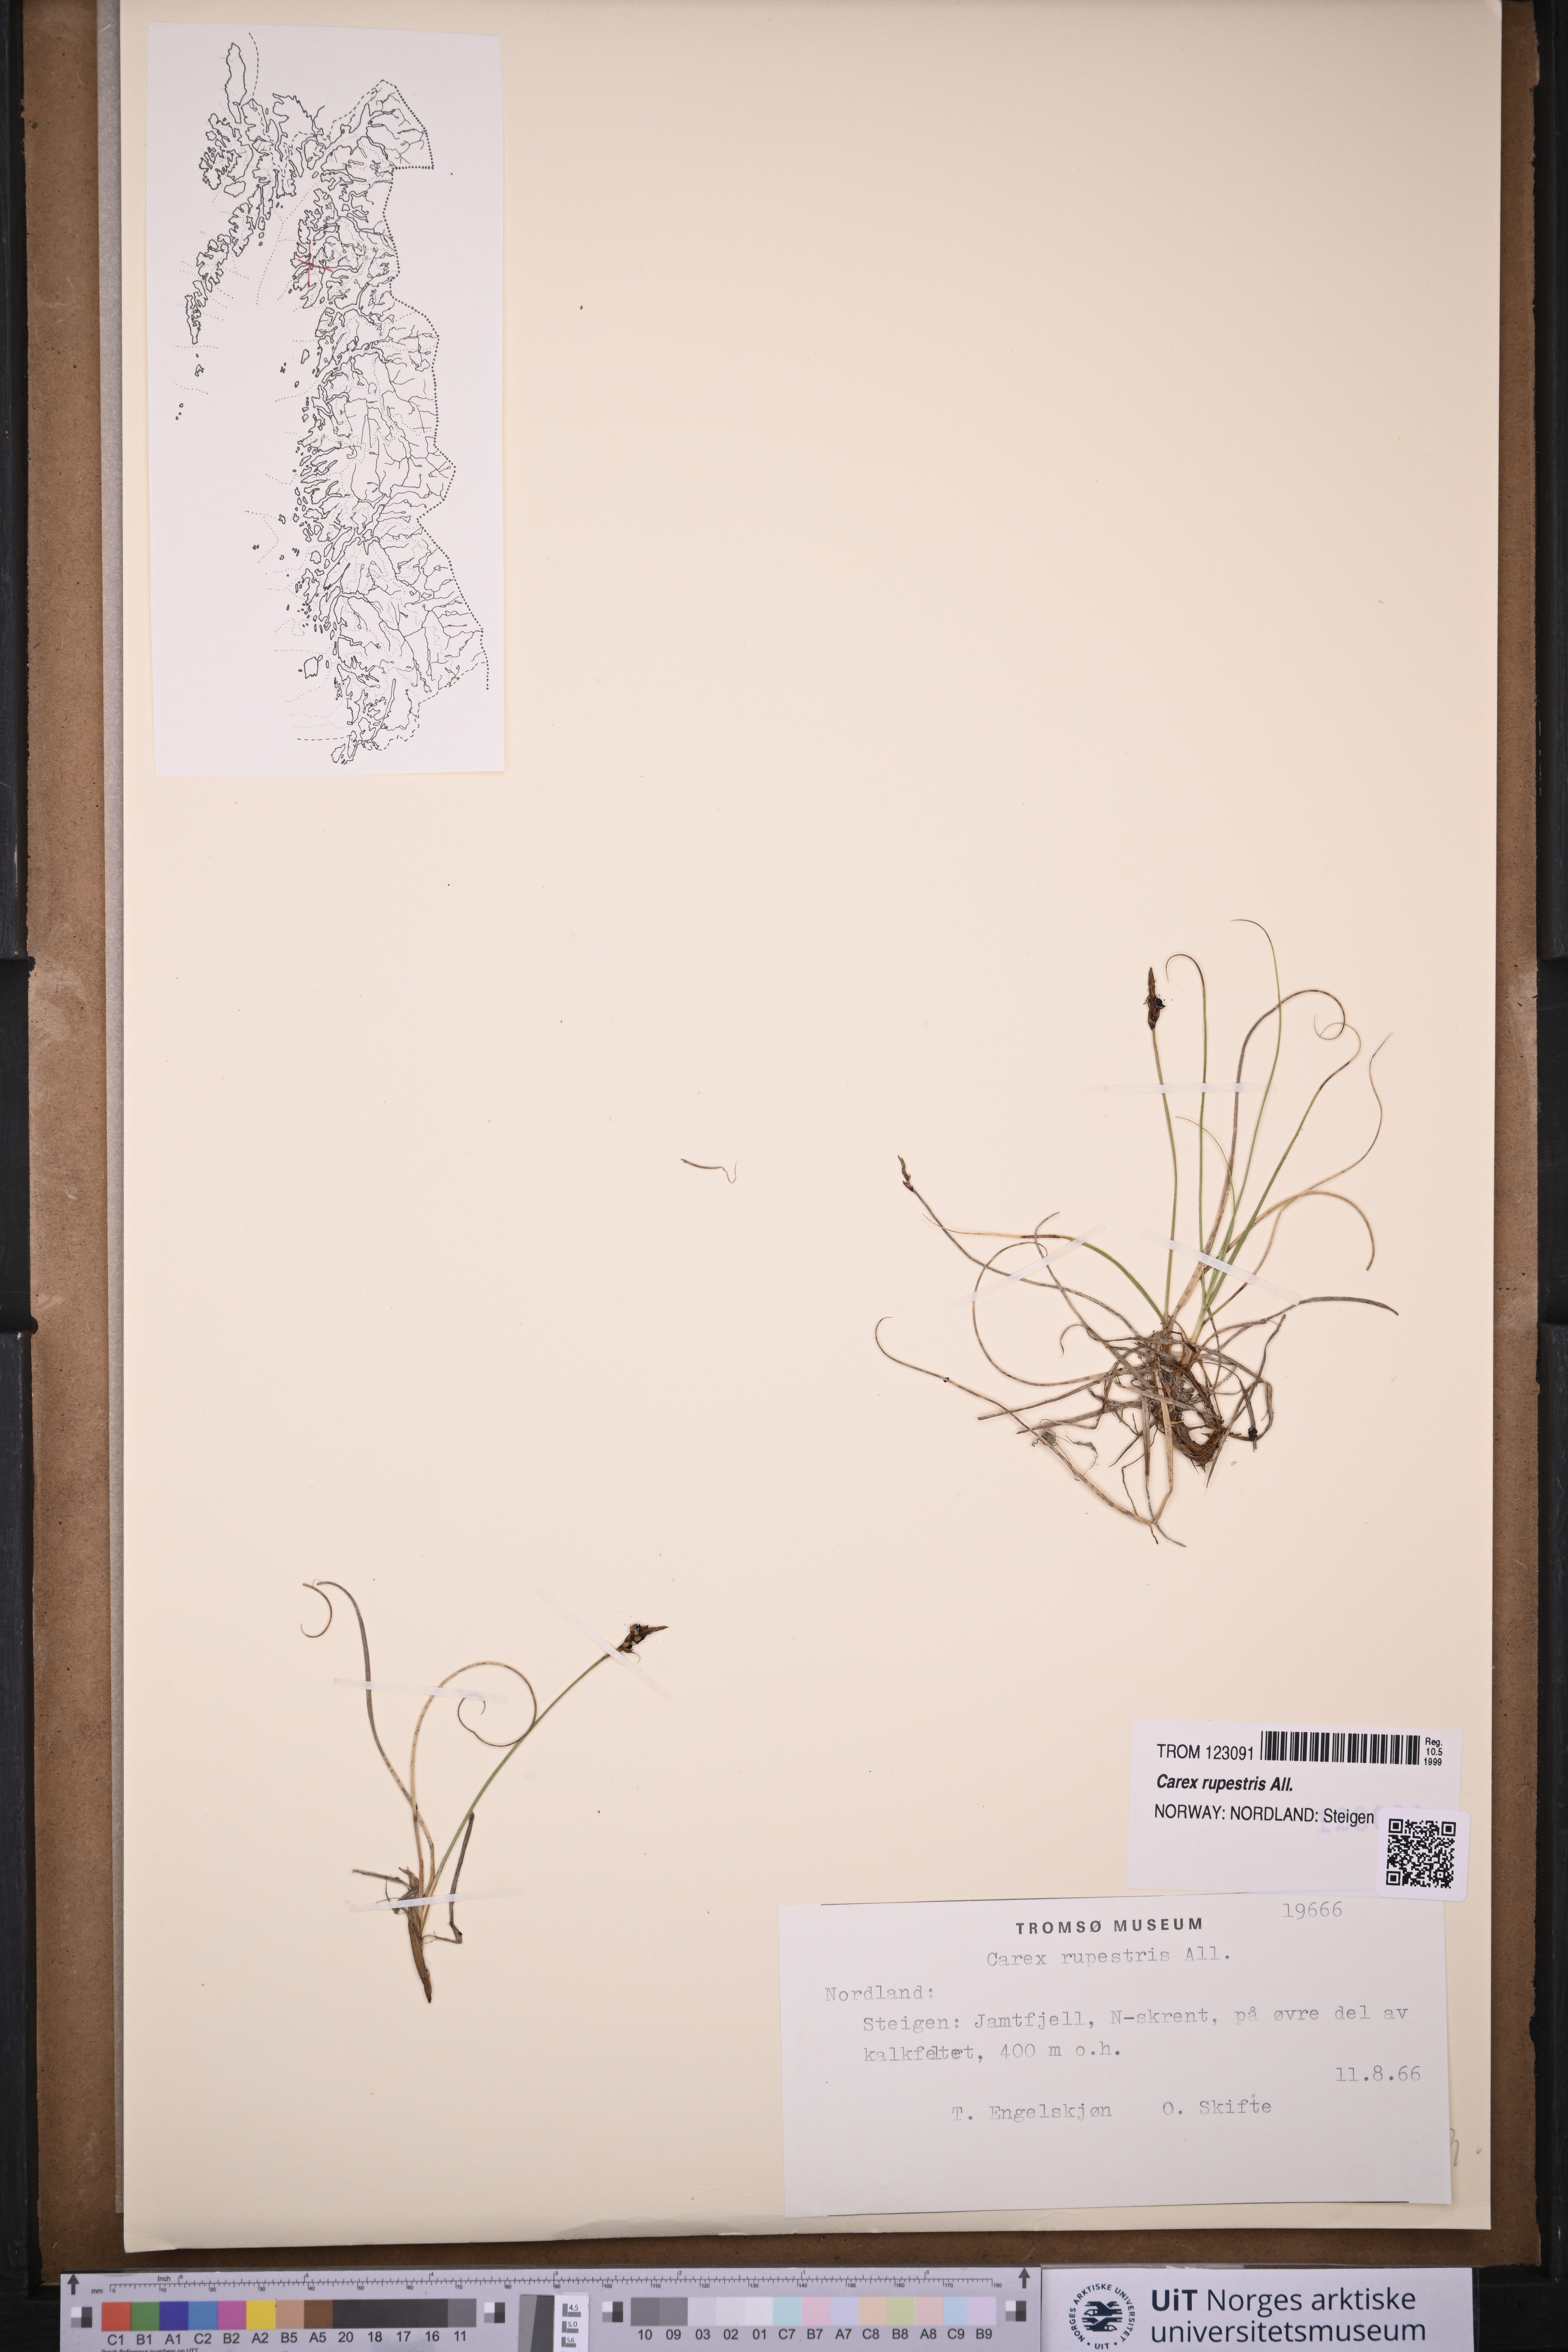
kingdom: Plantae
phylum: Tracheophyta
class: Liliopsida
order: Poales
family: Cyperaceae
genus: Carex
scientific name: Carex rupestris
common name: Rock sedge
